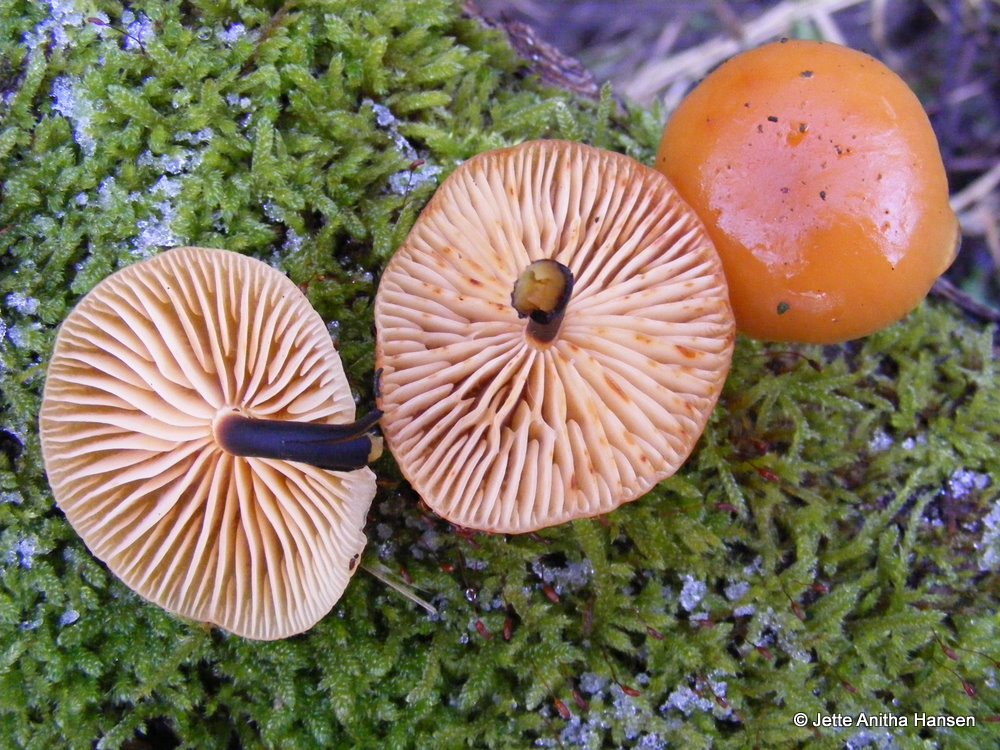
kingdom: Fungi
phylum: Basidiomycota
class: Agaricomycetes
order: Agaricales
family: Physalacriaceae
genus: Flammulina
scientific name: Flammulina elastica
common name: pile-fløjlsfod
